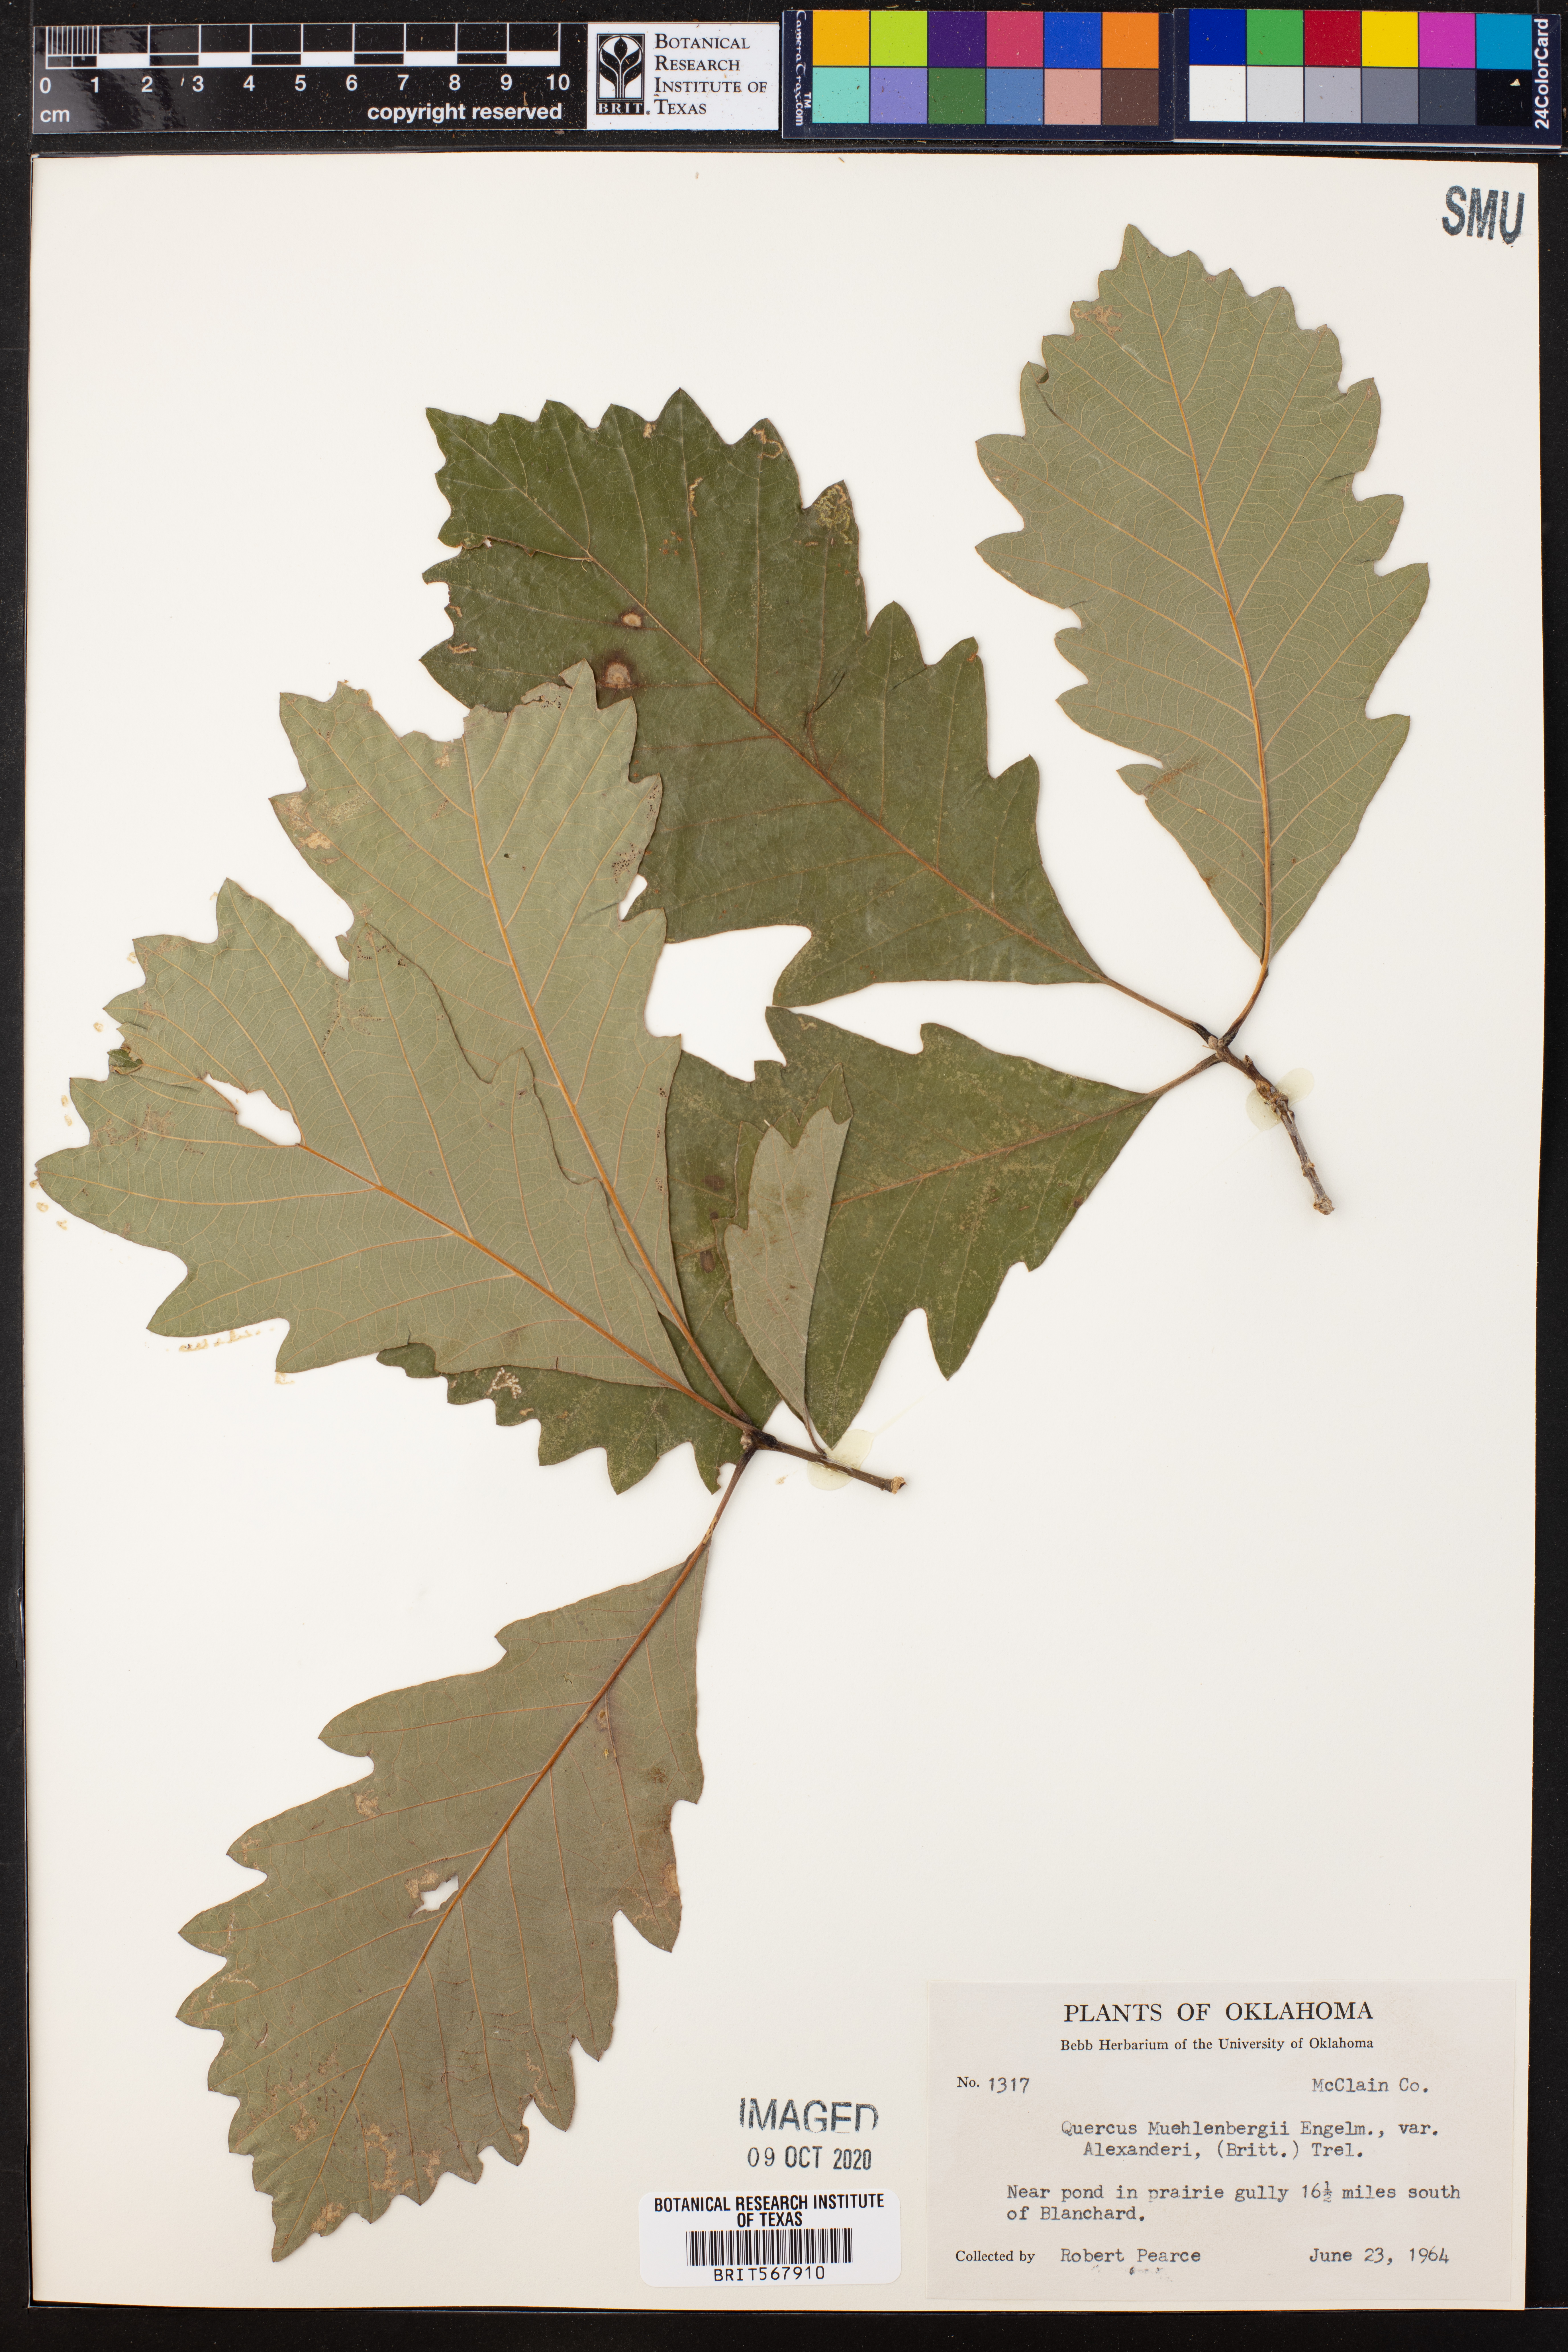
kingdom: Plantae
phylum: Tracheophyta
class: Magnoliopsida
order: Fagales
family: Fagaceae
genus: Quercus
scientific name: Quercus muehlenbergii
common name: Chinkapin oak
